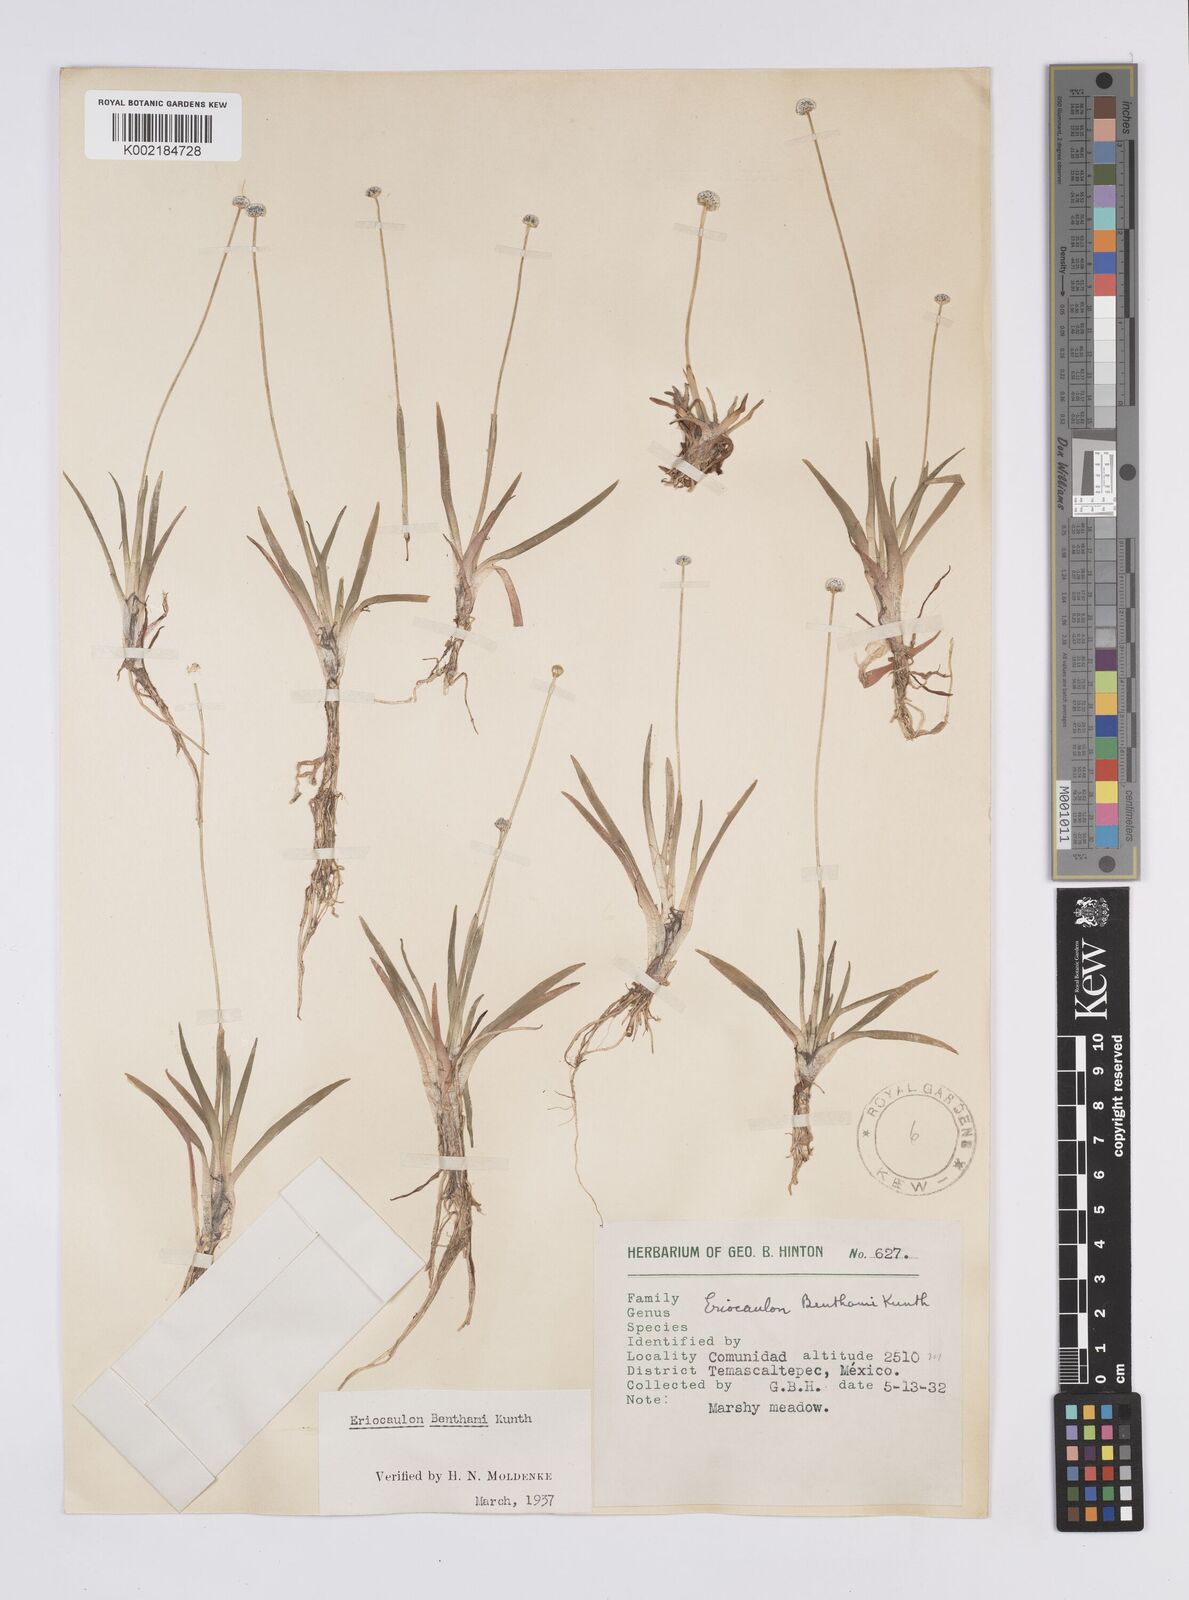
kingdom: Plantae
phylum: Tracheophyta
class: Liliopsida
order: Poales
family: Eriocaulaceae
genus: Eriocaulon
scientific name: Eriocaulon benthamii
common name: Bentham's pipewort
